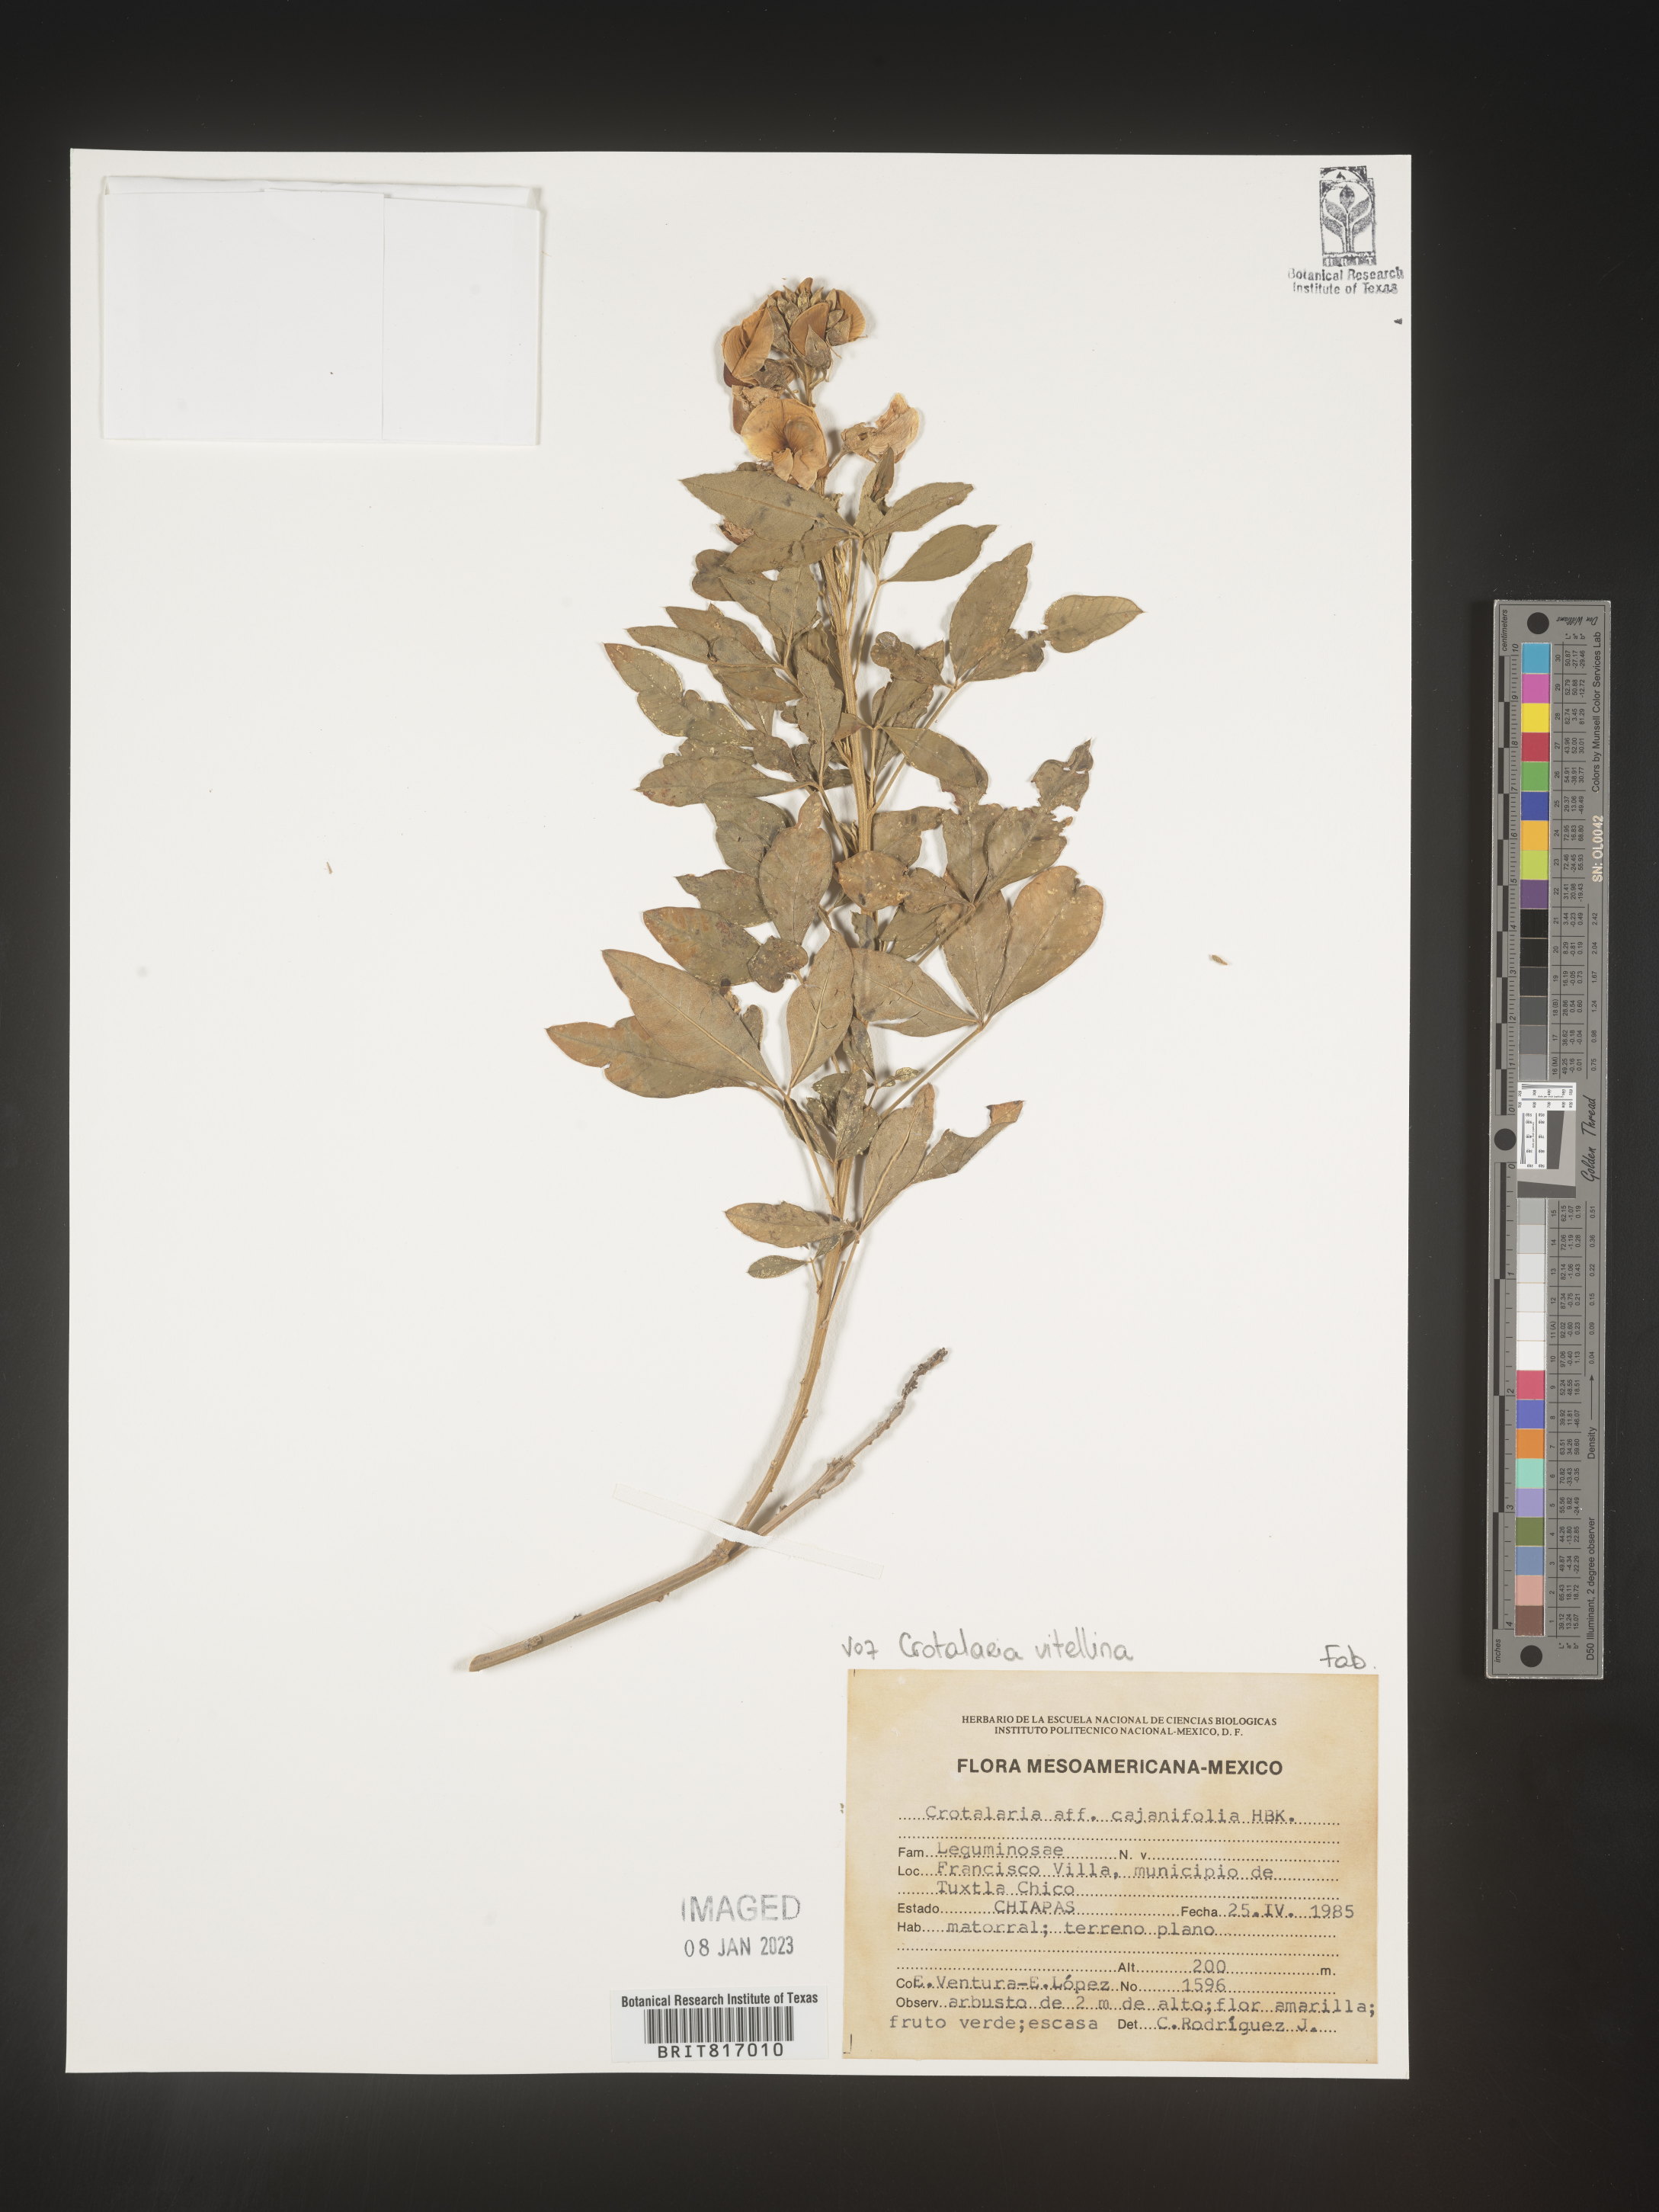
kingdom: Plantae
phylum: Tracheophyta
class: Magnoliopsida
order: Fabales
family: Fabaceae
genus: Crotalaria
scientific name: Crotalaria
